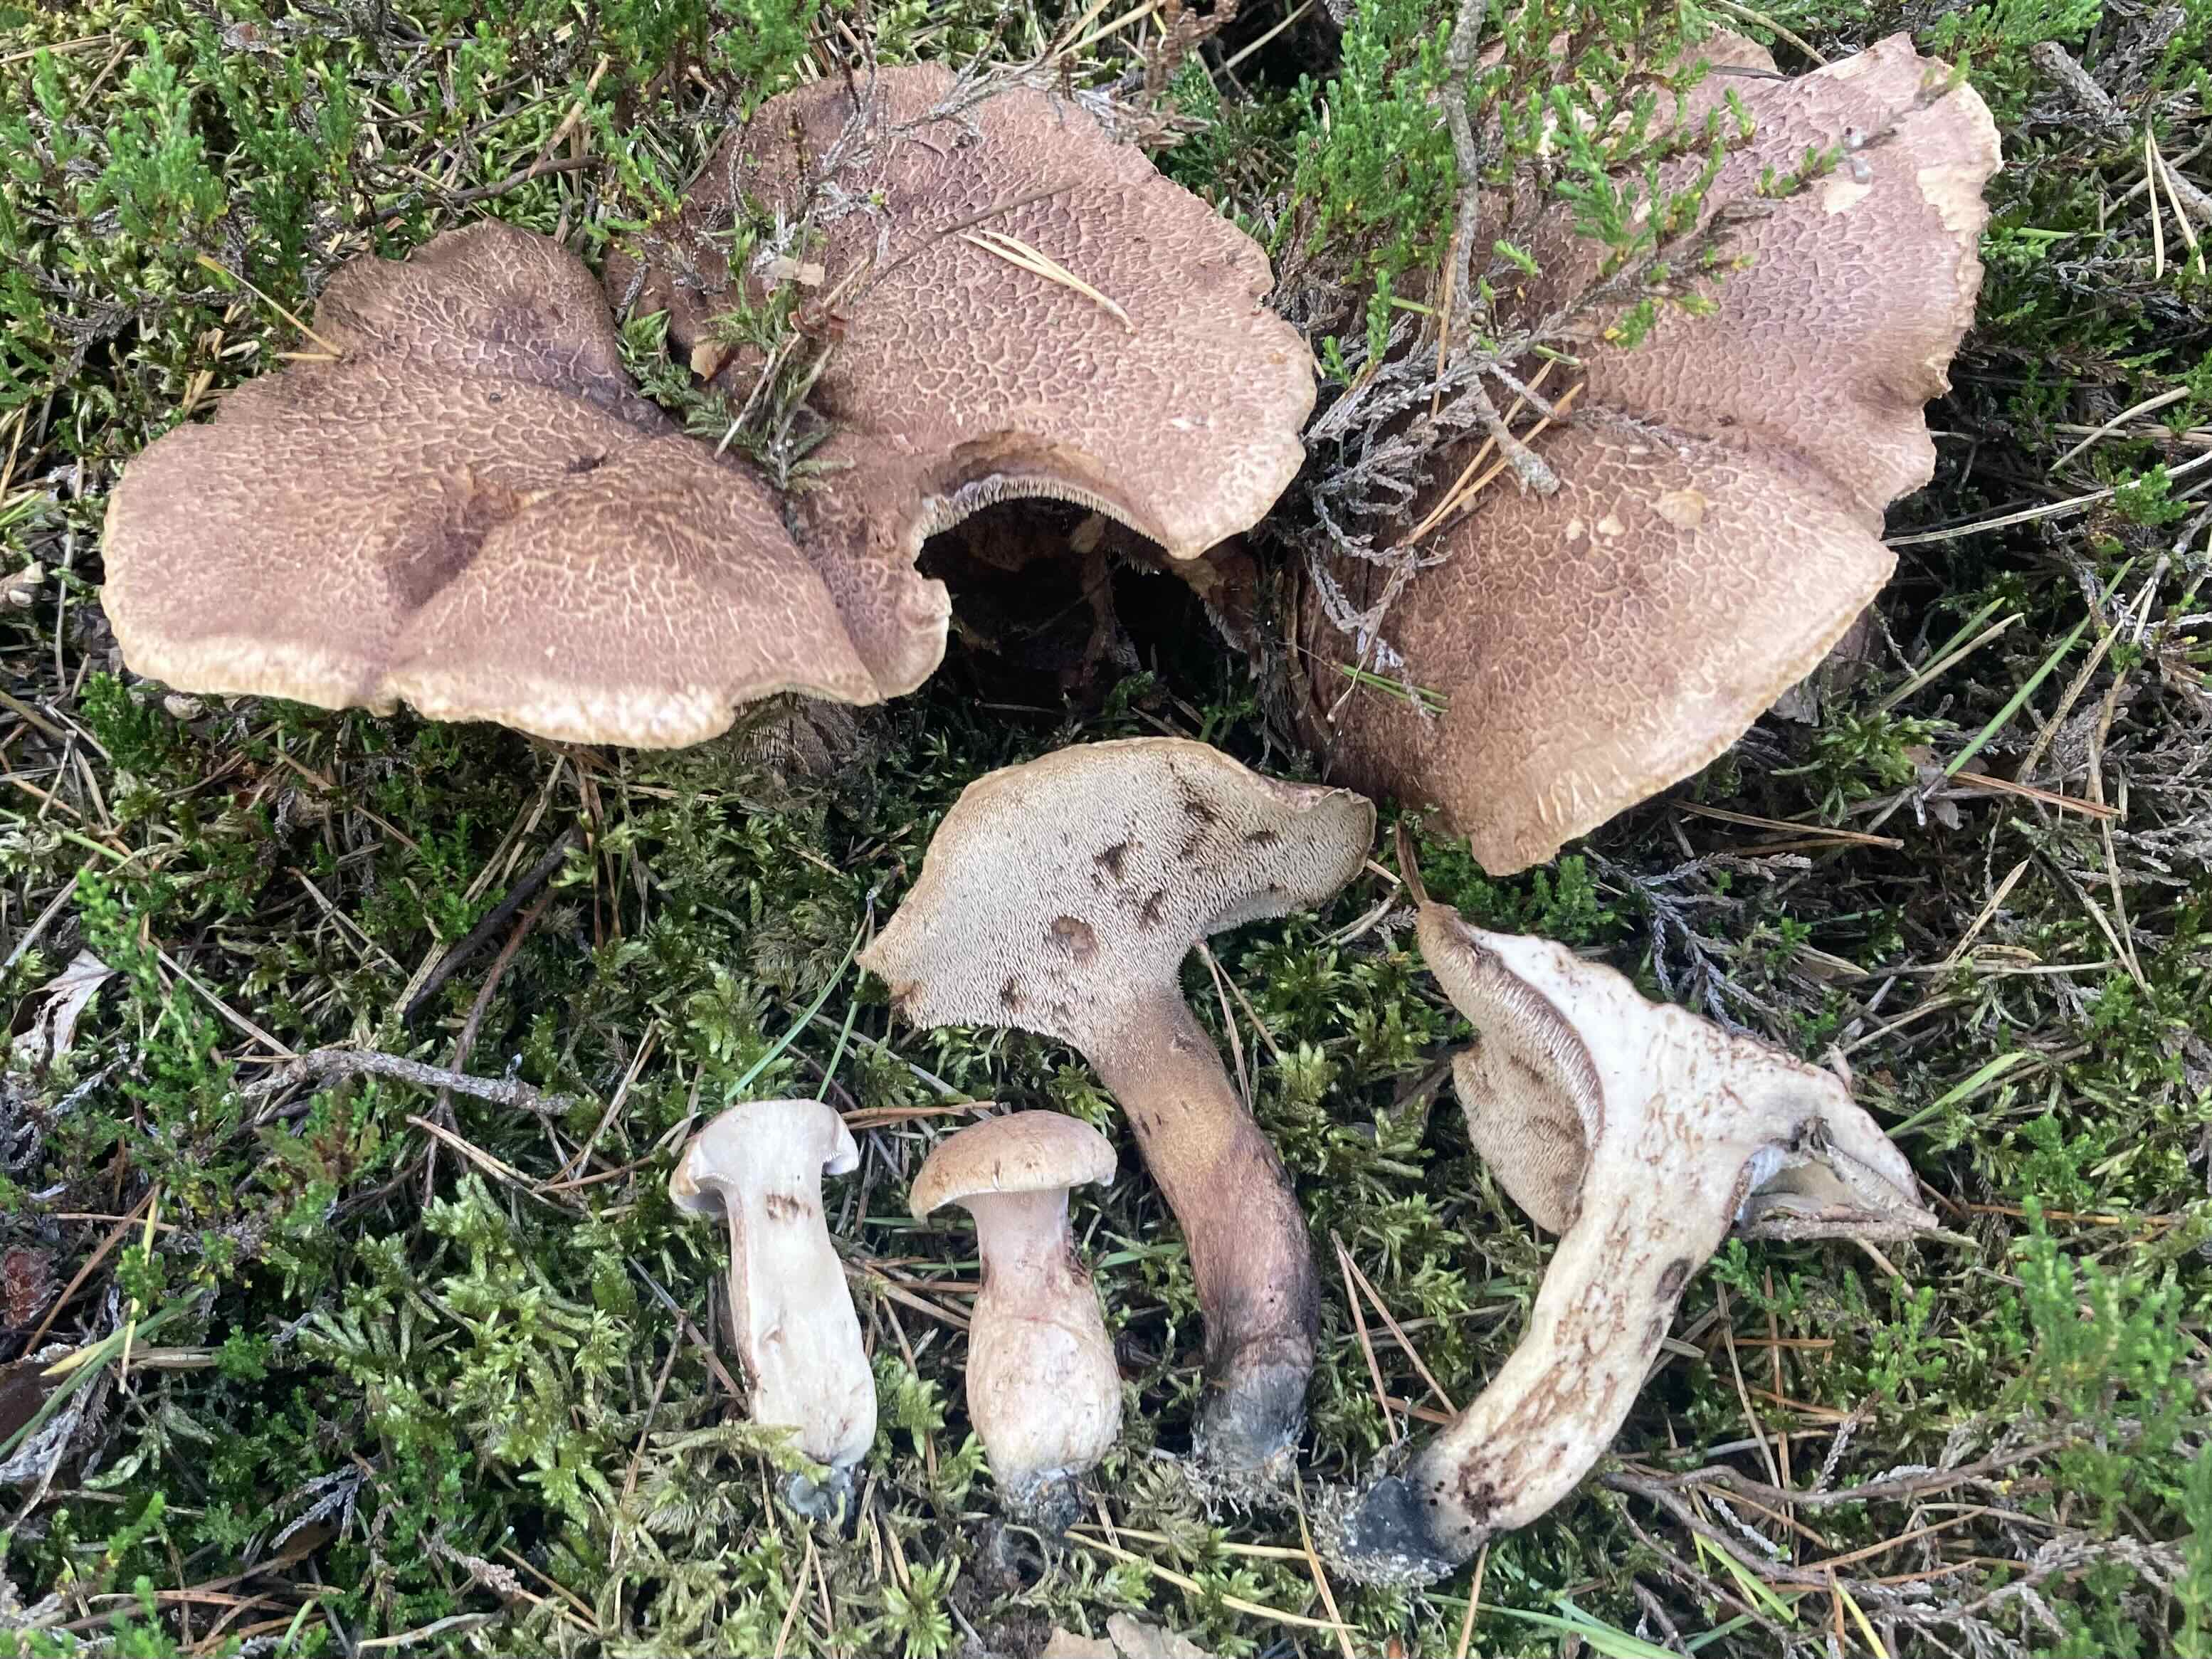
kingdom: Fungi
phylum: Basidiomycota
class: Agaricomycetes
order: Thelephorales
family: Bankeraceae
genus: Hydnellum
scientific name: Hydnellum scabrosum
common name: blåfodet korkpigsvamp
